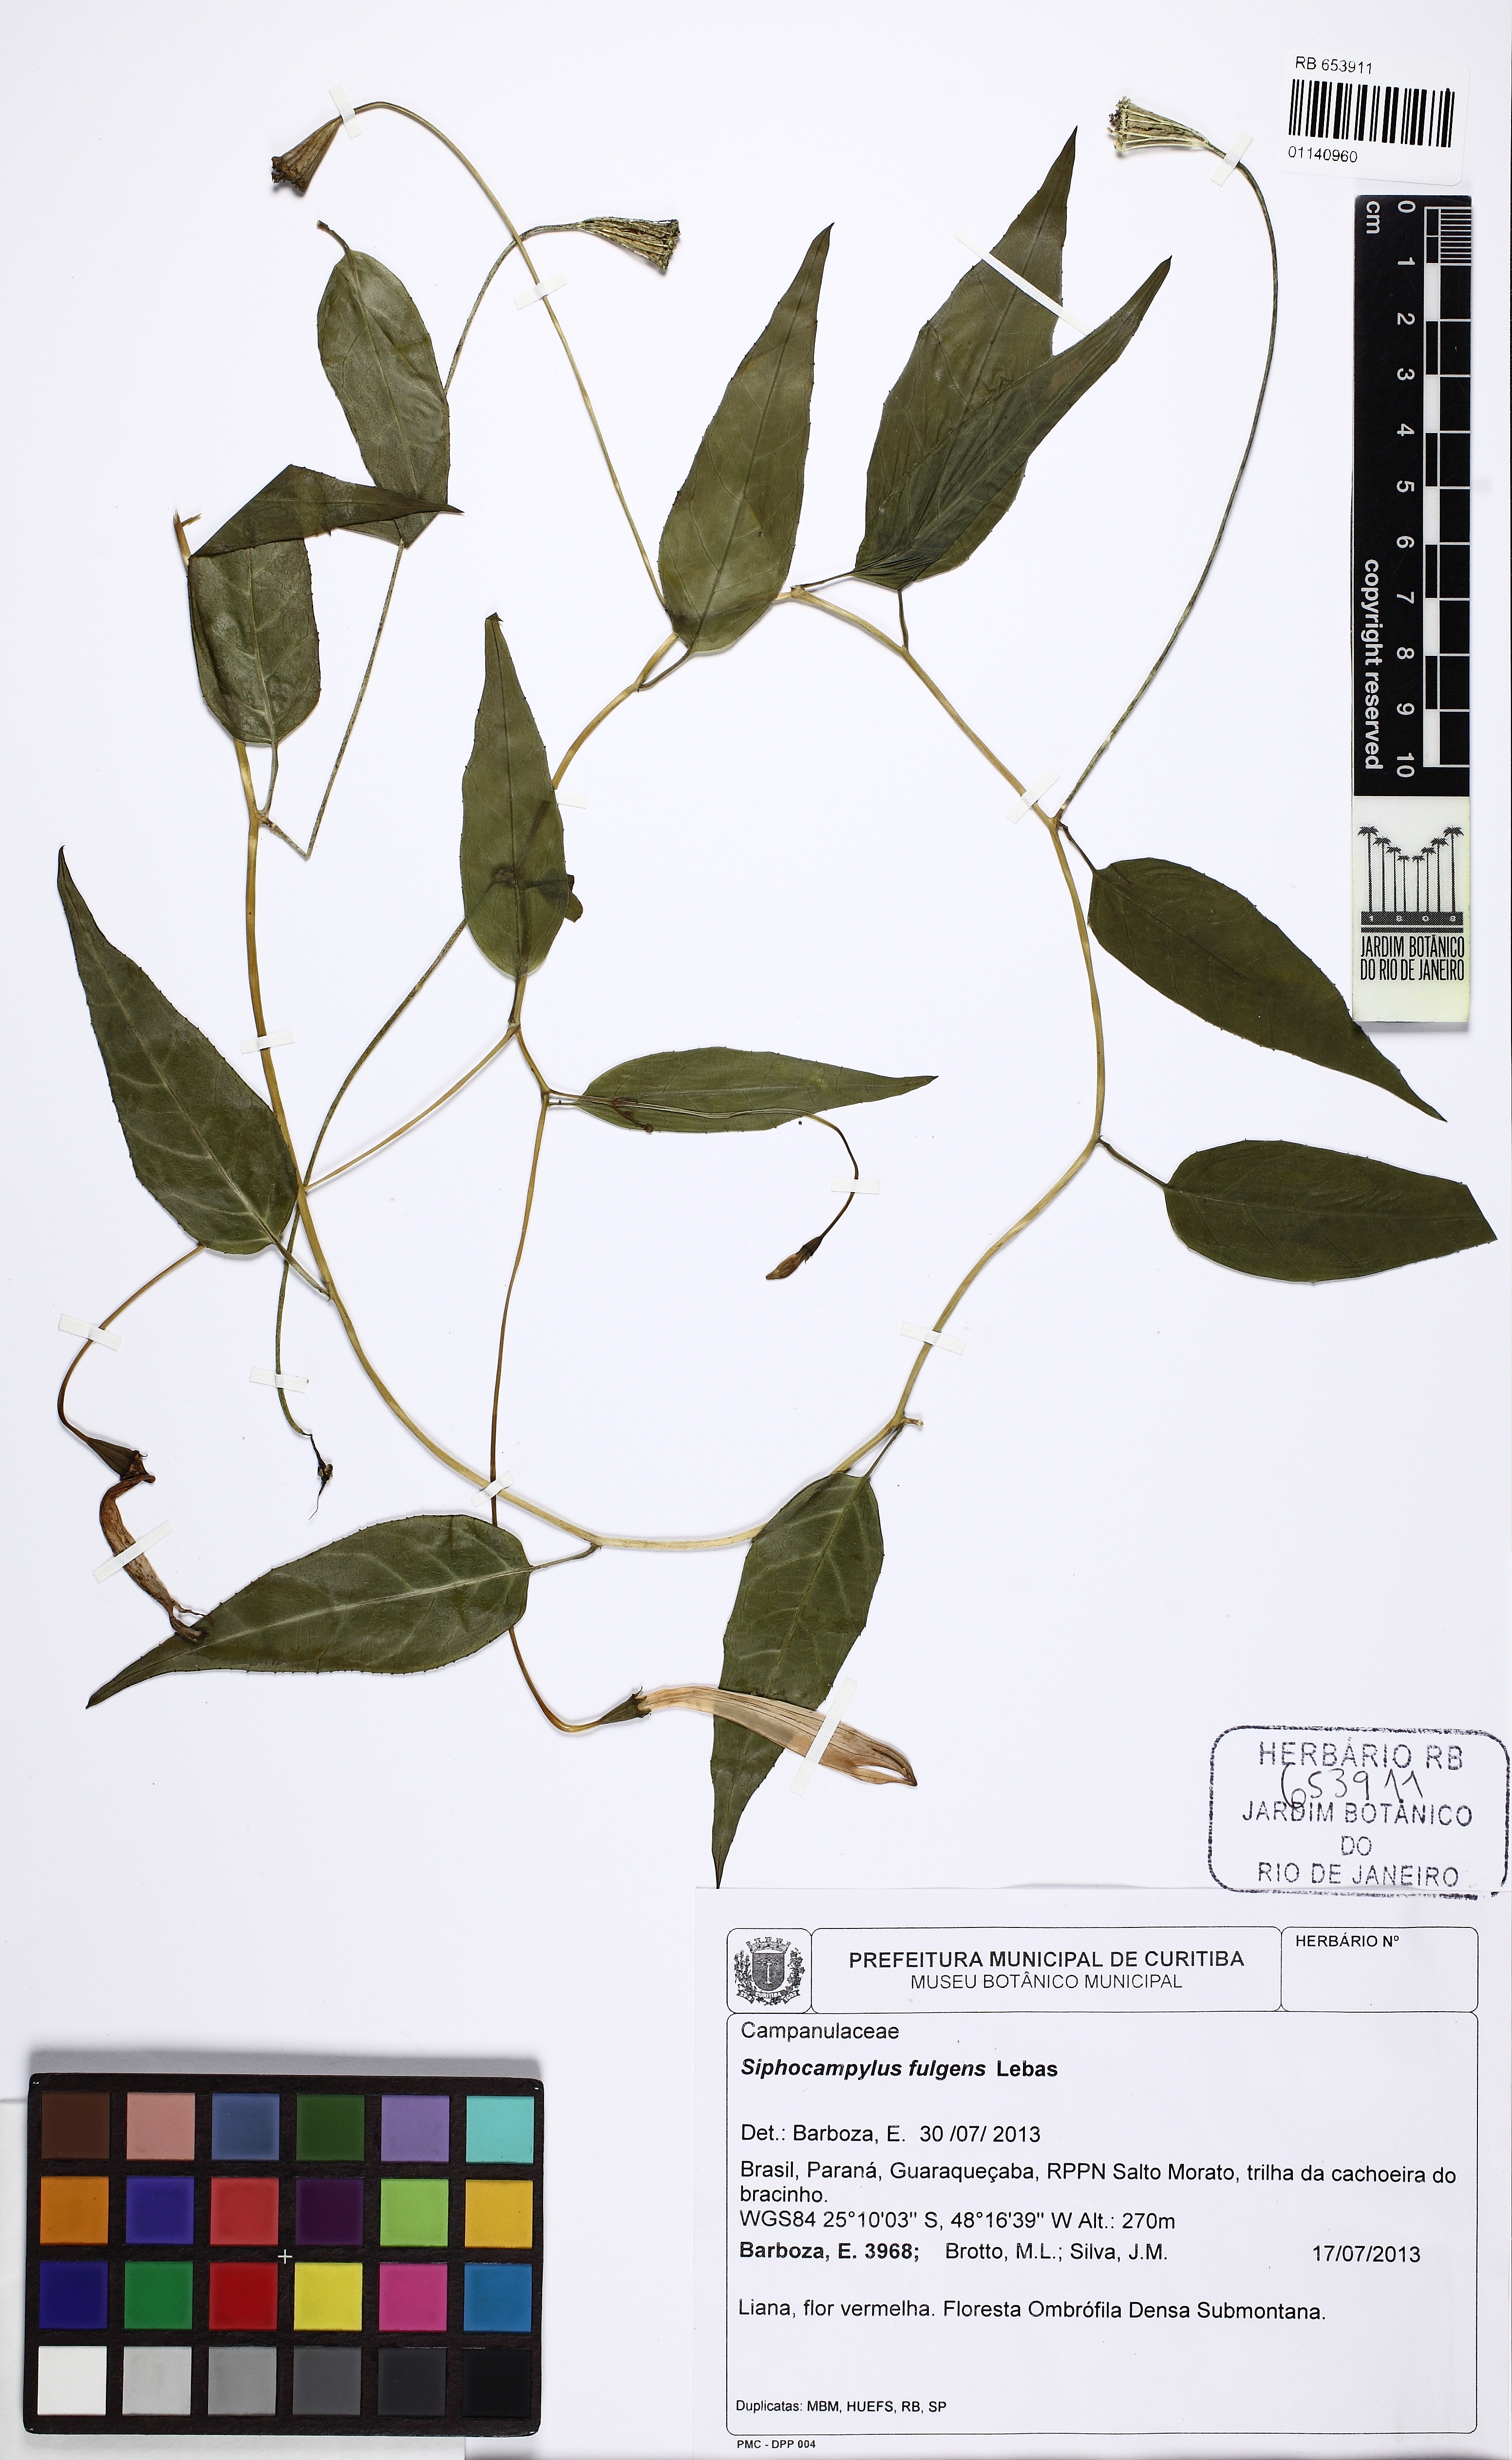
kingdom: Plantae
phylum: Tracheophyta
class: Magnoliopsida
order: Asterales
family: Campanulaceae
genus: Siphocampylus
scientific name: Siphocampylus fulgens
